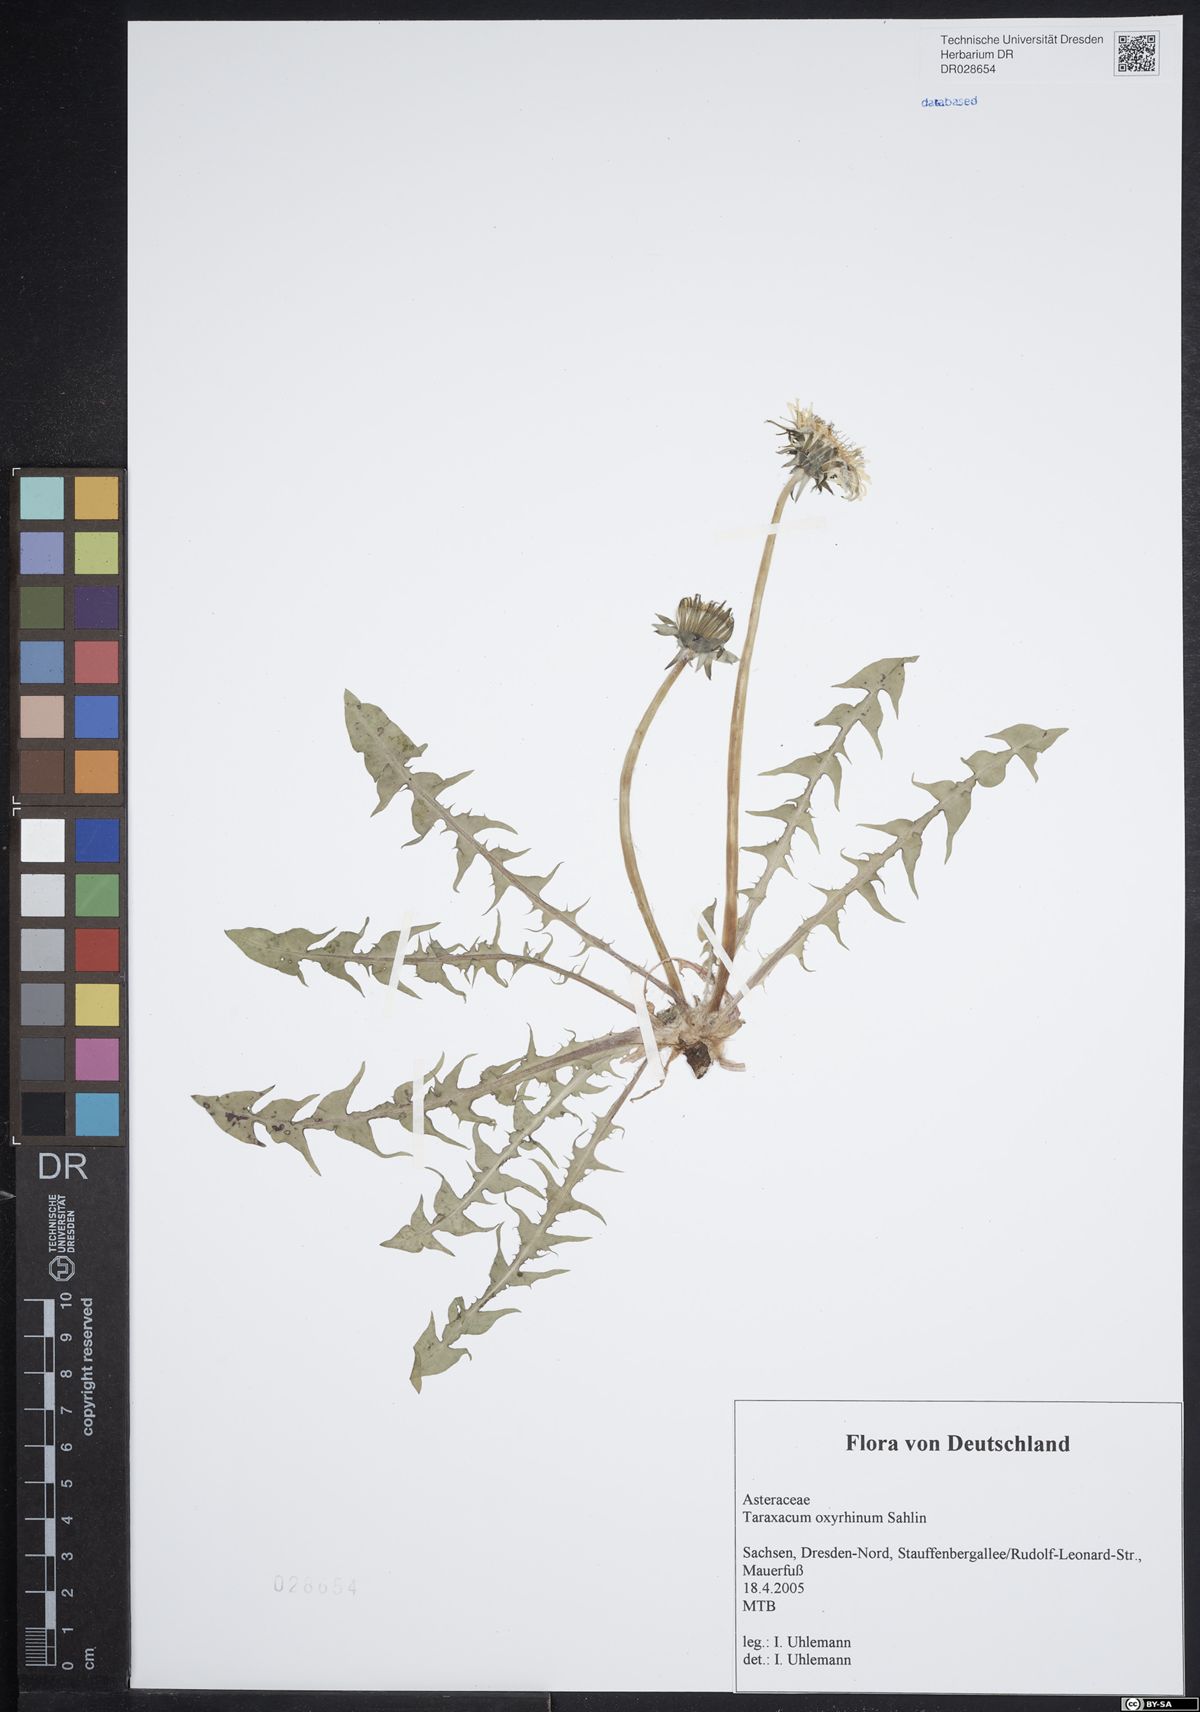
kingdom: Plantae
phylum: Tracheophyta
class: Magnoliopsida
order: Asterales
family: Asteraceae
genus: Taraxacum
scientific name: Taraxacum oxyrrhinum
